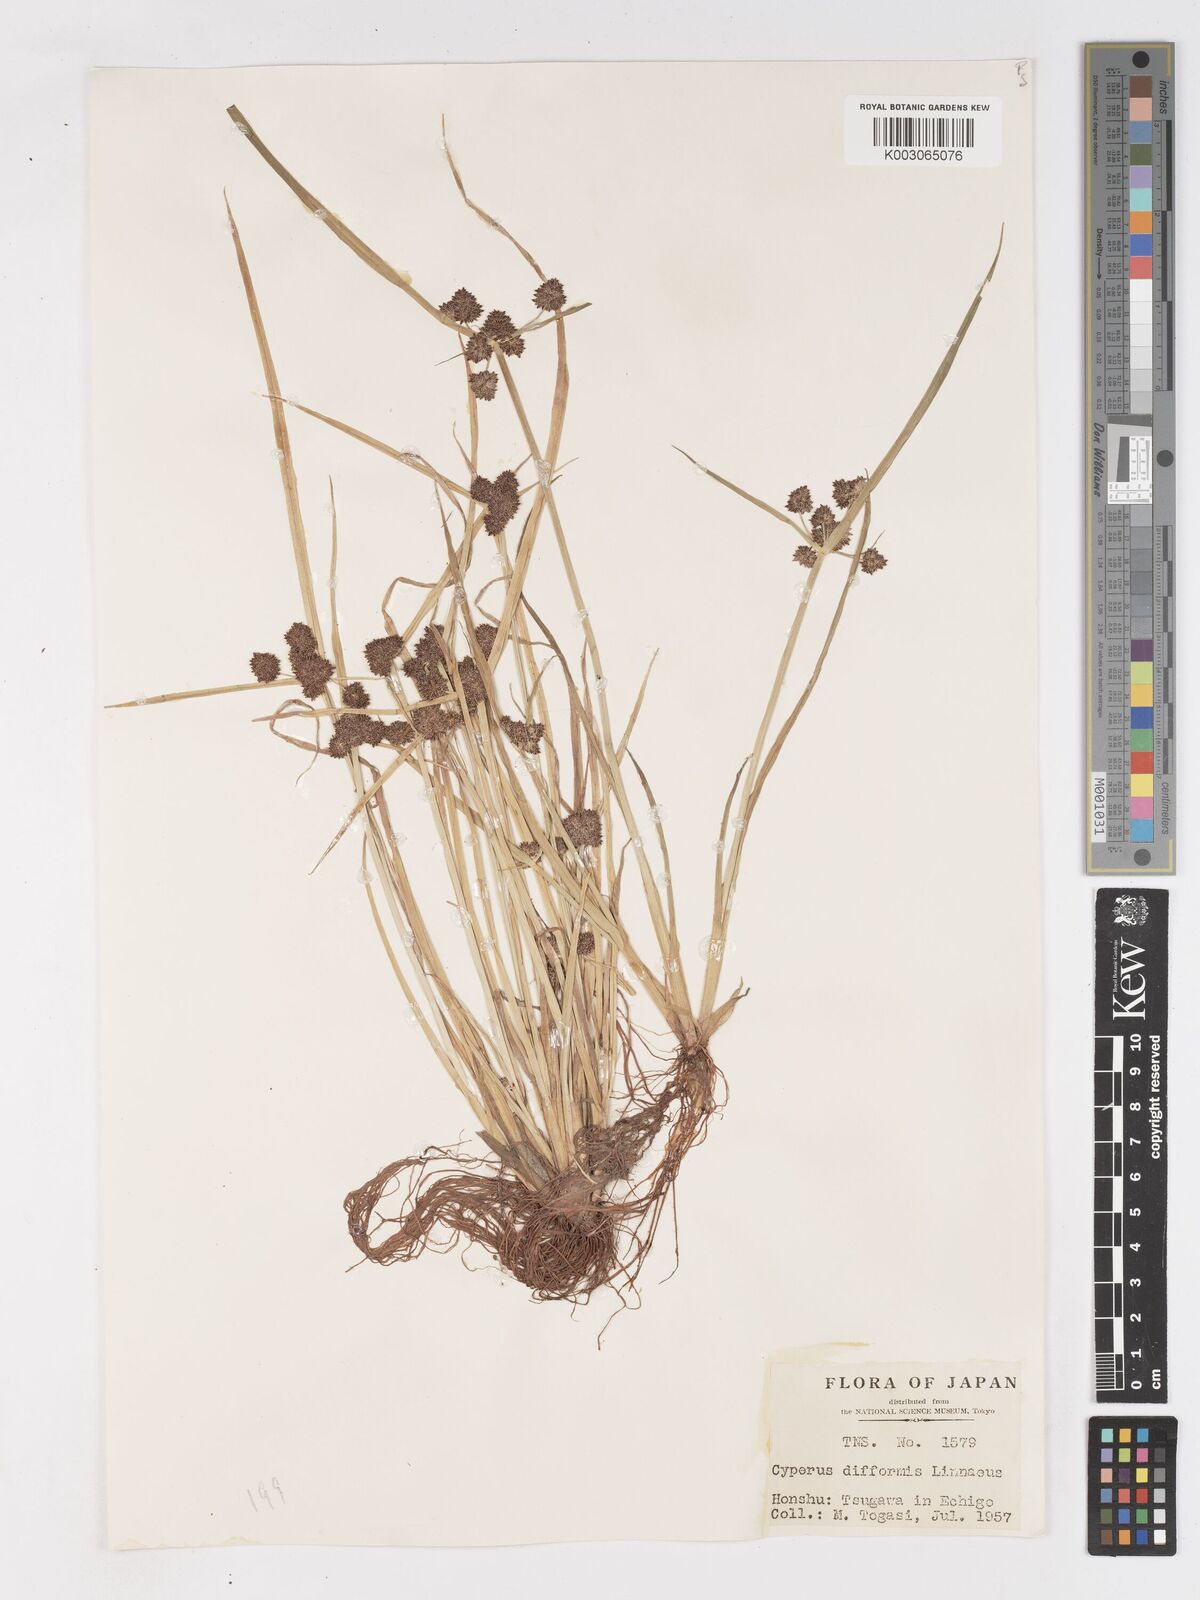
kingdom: Plantae
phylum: Tracheophyta
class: Liliopsida
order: Poales
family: Cyperaceae
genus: Cyperus
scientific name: Cyperus difformis
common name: Variable flatsedge
